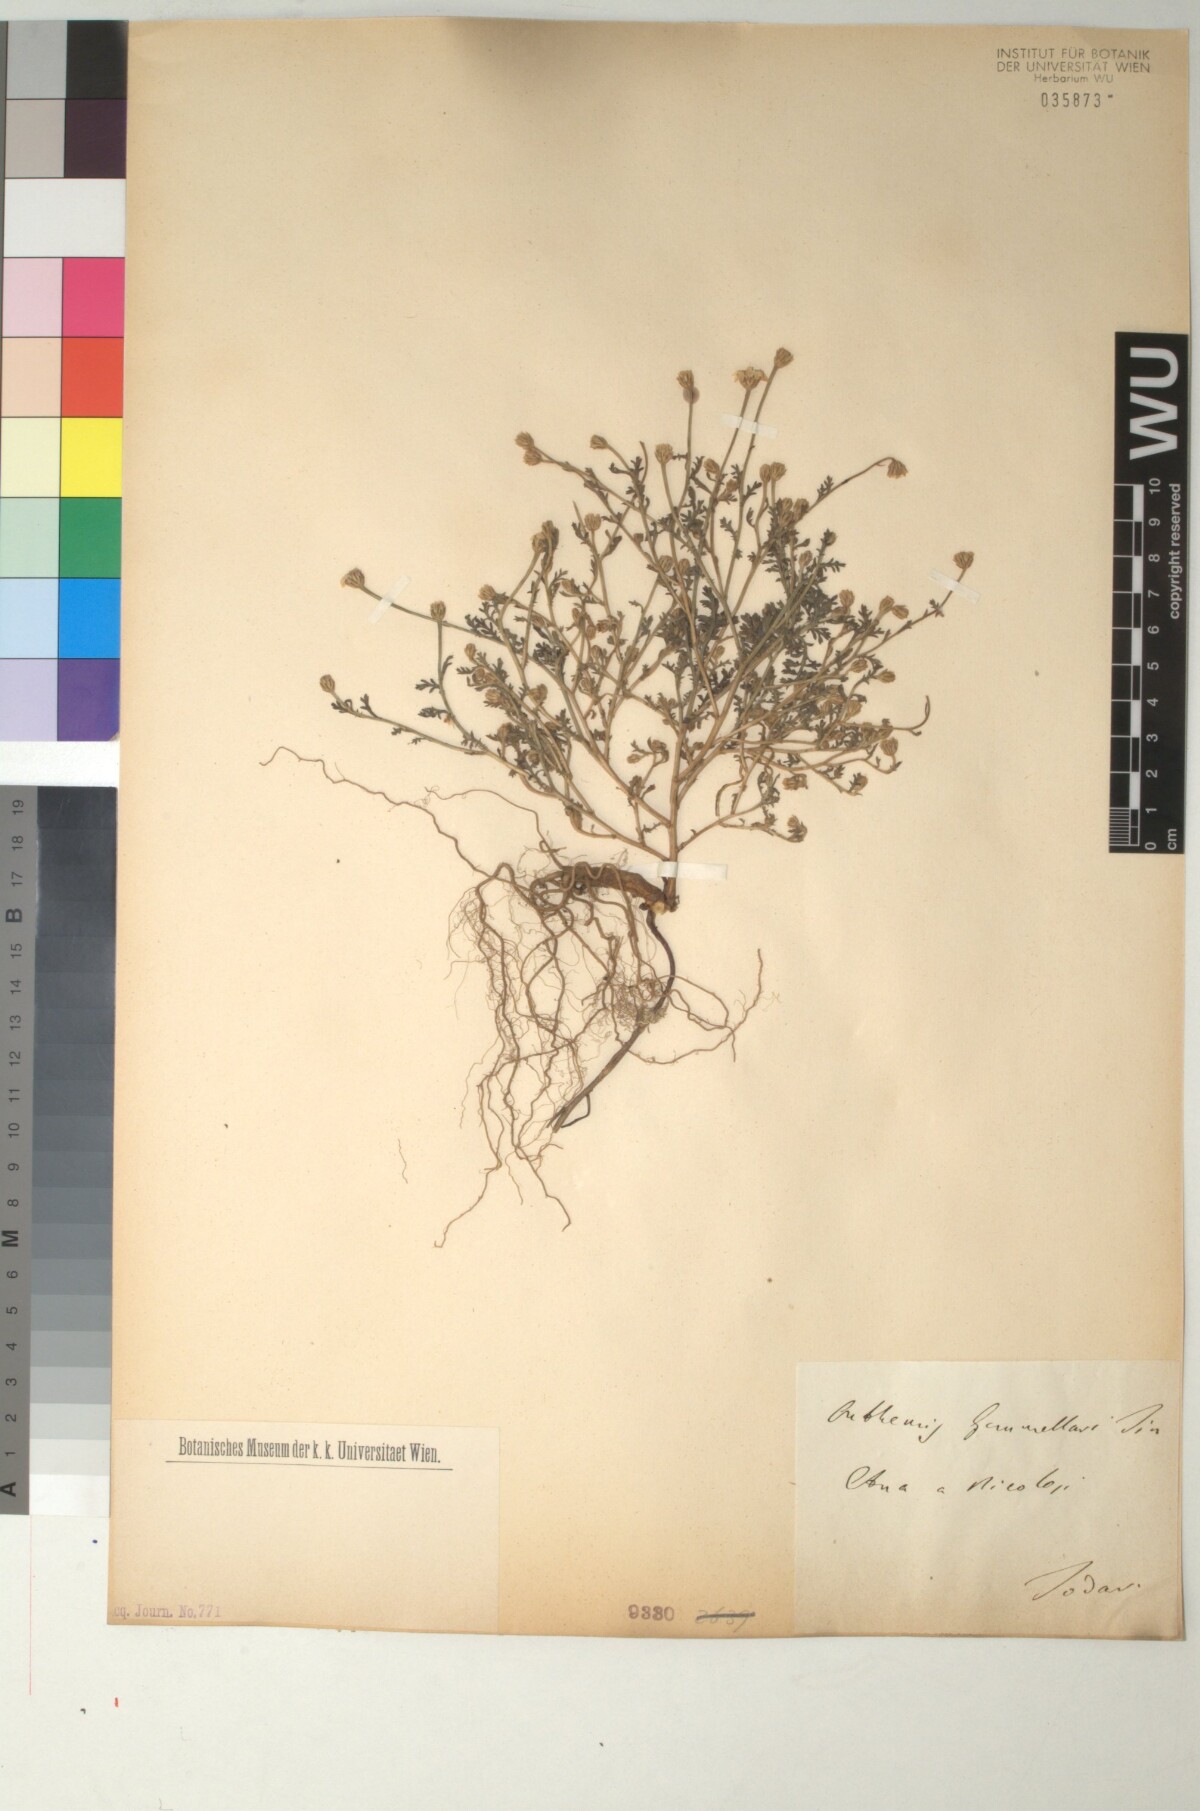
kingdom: Plantae
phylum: Tracheophyta
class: Magnoliopsida
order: Asterales
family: Asteraceae
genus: Anthemis
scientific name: Anthemis arvensis
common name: Corn chamomile
